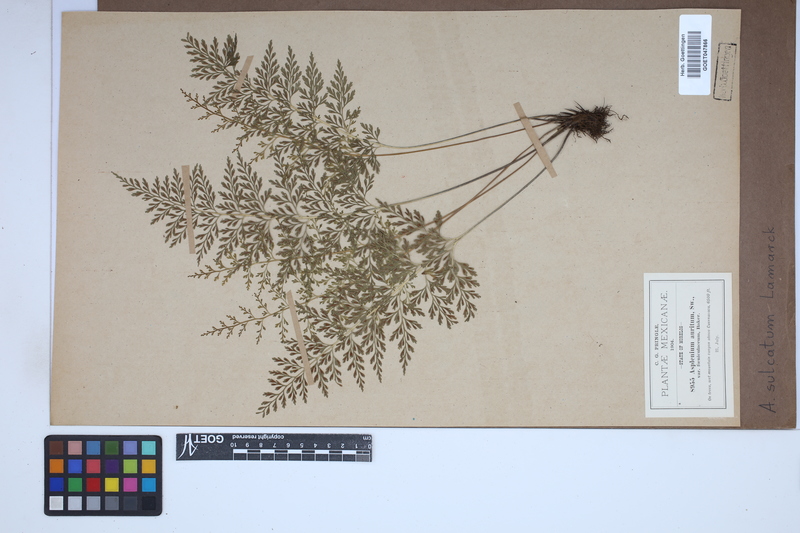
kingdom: Plantae
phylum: Tracheophyta
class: Polypodiopsida
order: Polypodiales
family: Aspleniaceae
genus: Asplenium
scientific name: Asplenium sulcatum
